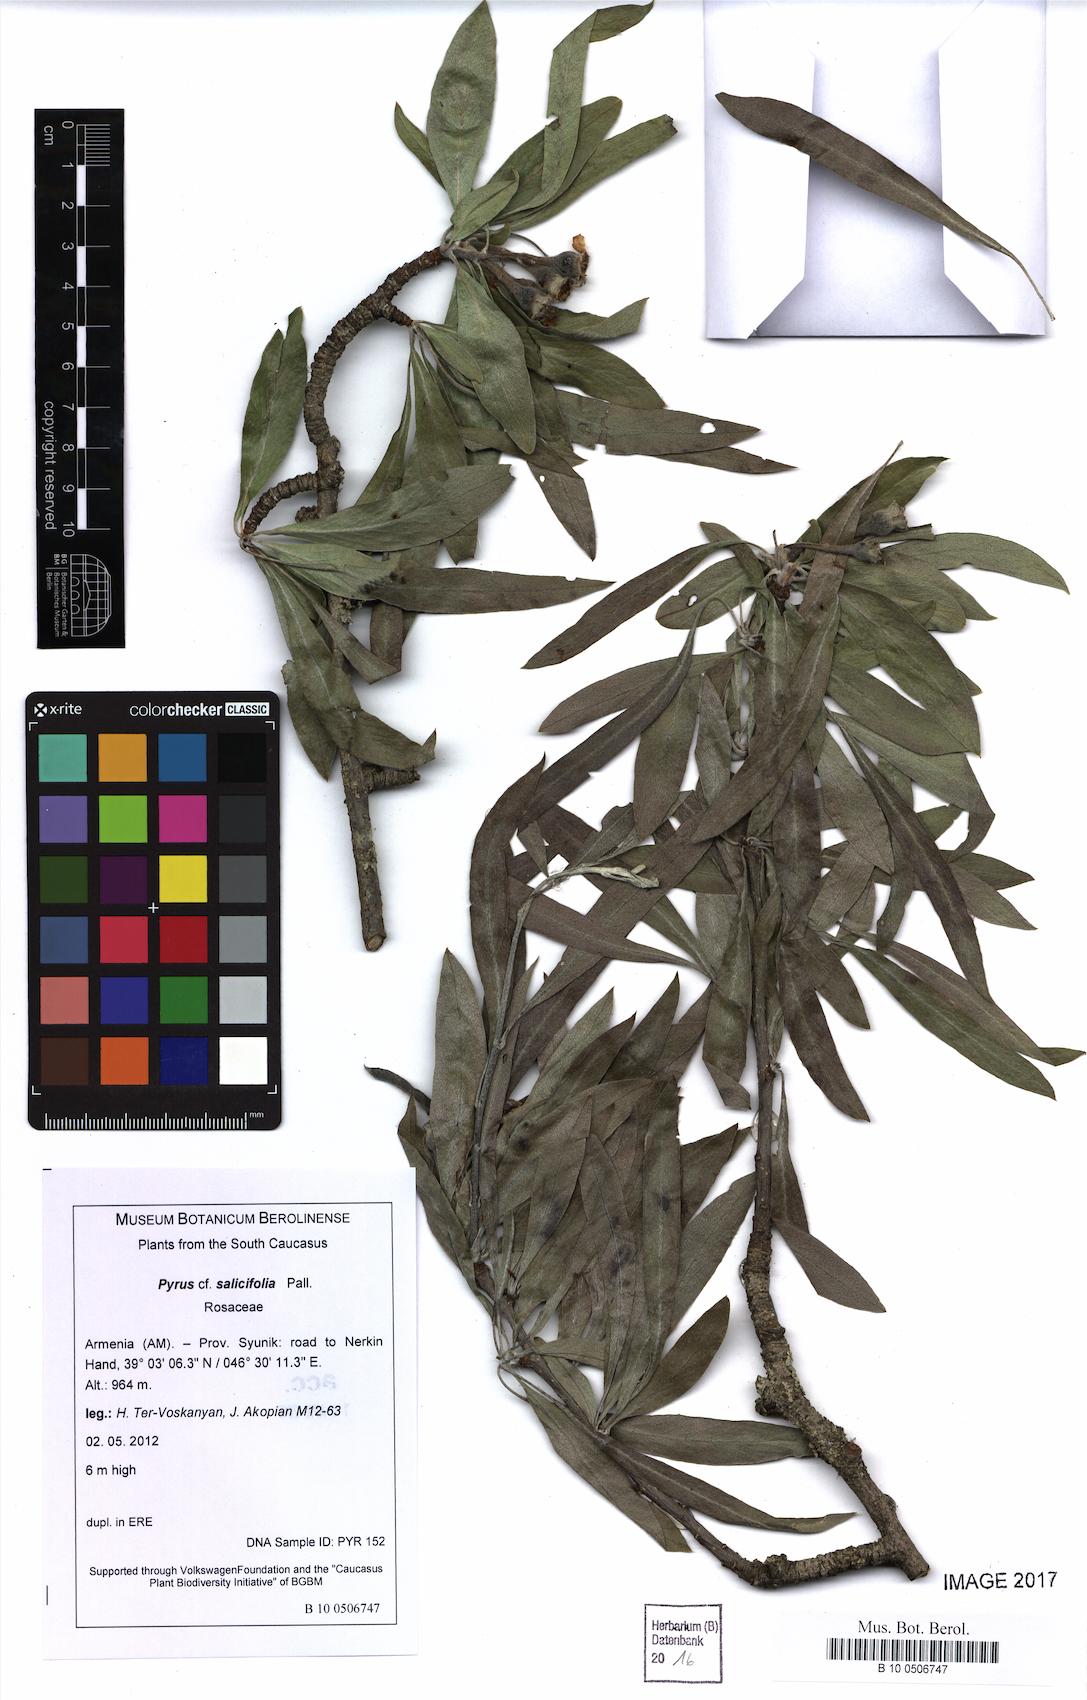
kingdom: Plantae
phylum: Tracheophyta
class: Magnoliopsida
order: Rosales
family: Rosaceae
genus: Pyrus
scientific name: Pyrus salicifolia
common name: Willow-leaved pear
